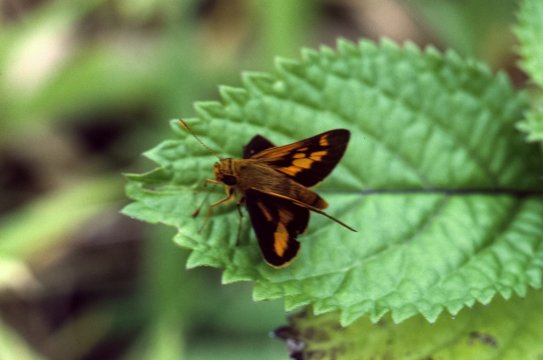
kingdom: Animalia
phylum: Arthropoda
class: Insecta
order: Lepidoptera
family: Hesperiidae
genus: Oriens
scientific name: Oriens augustula
